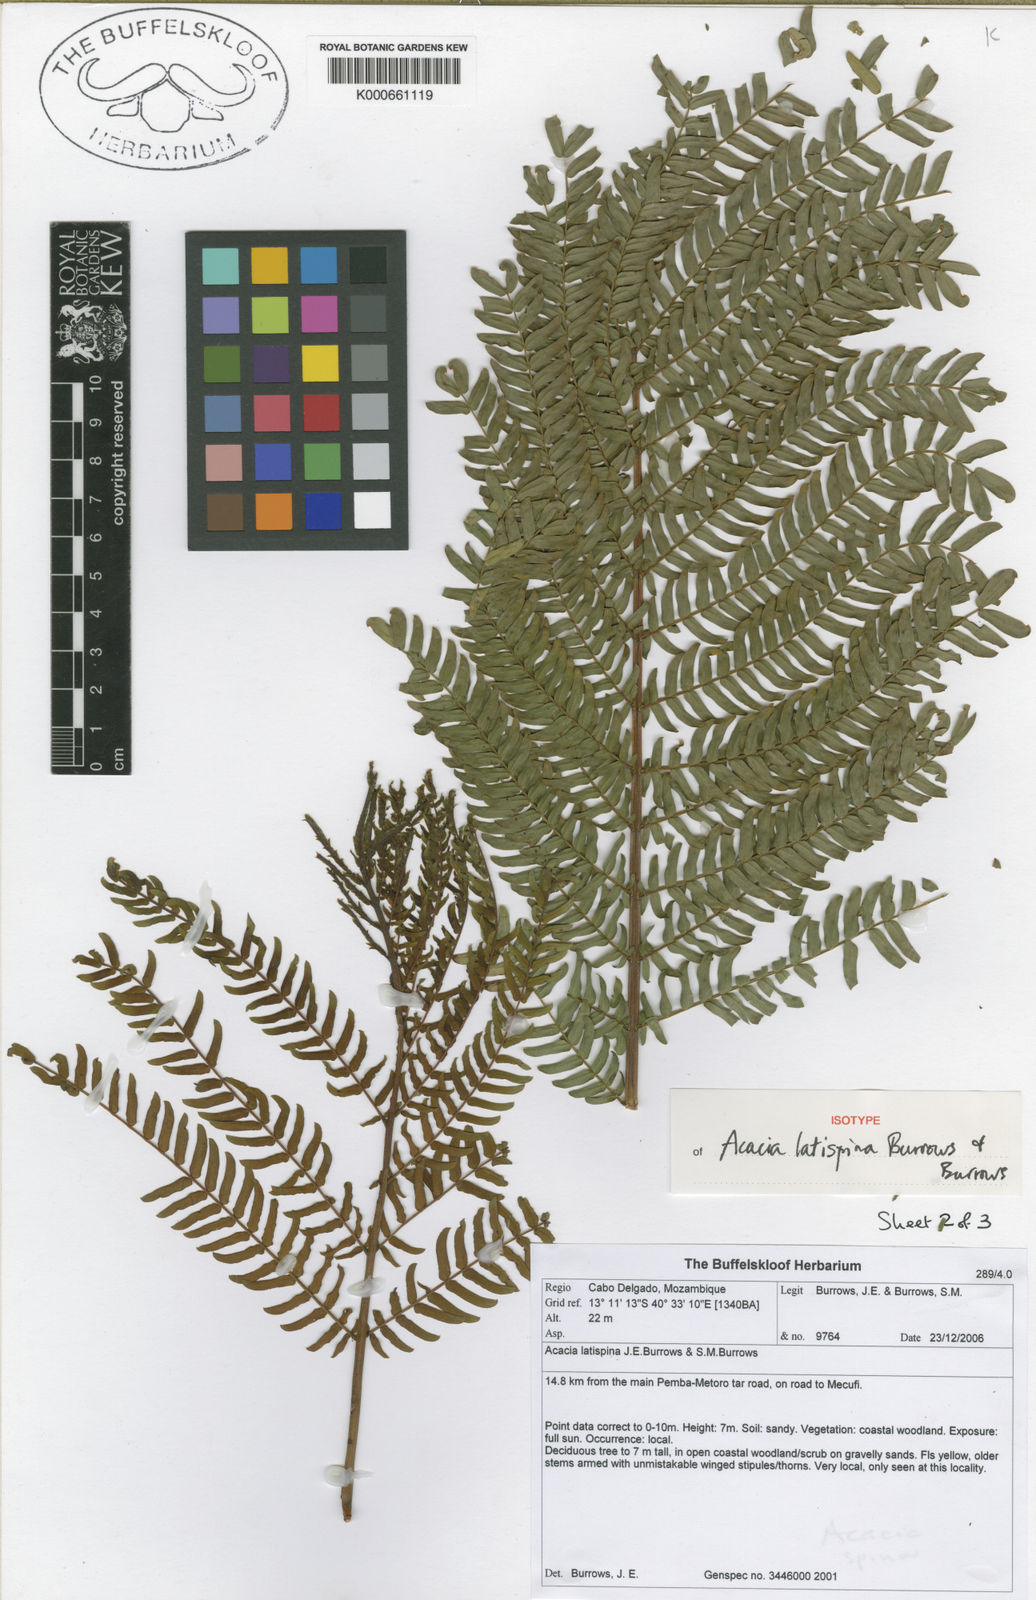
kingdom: Plantae
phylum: Tracheophyta
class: Magnoliopsida
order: Fabales
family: Fabaceae
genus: Vachellia
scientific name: Vachellia latispina
